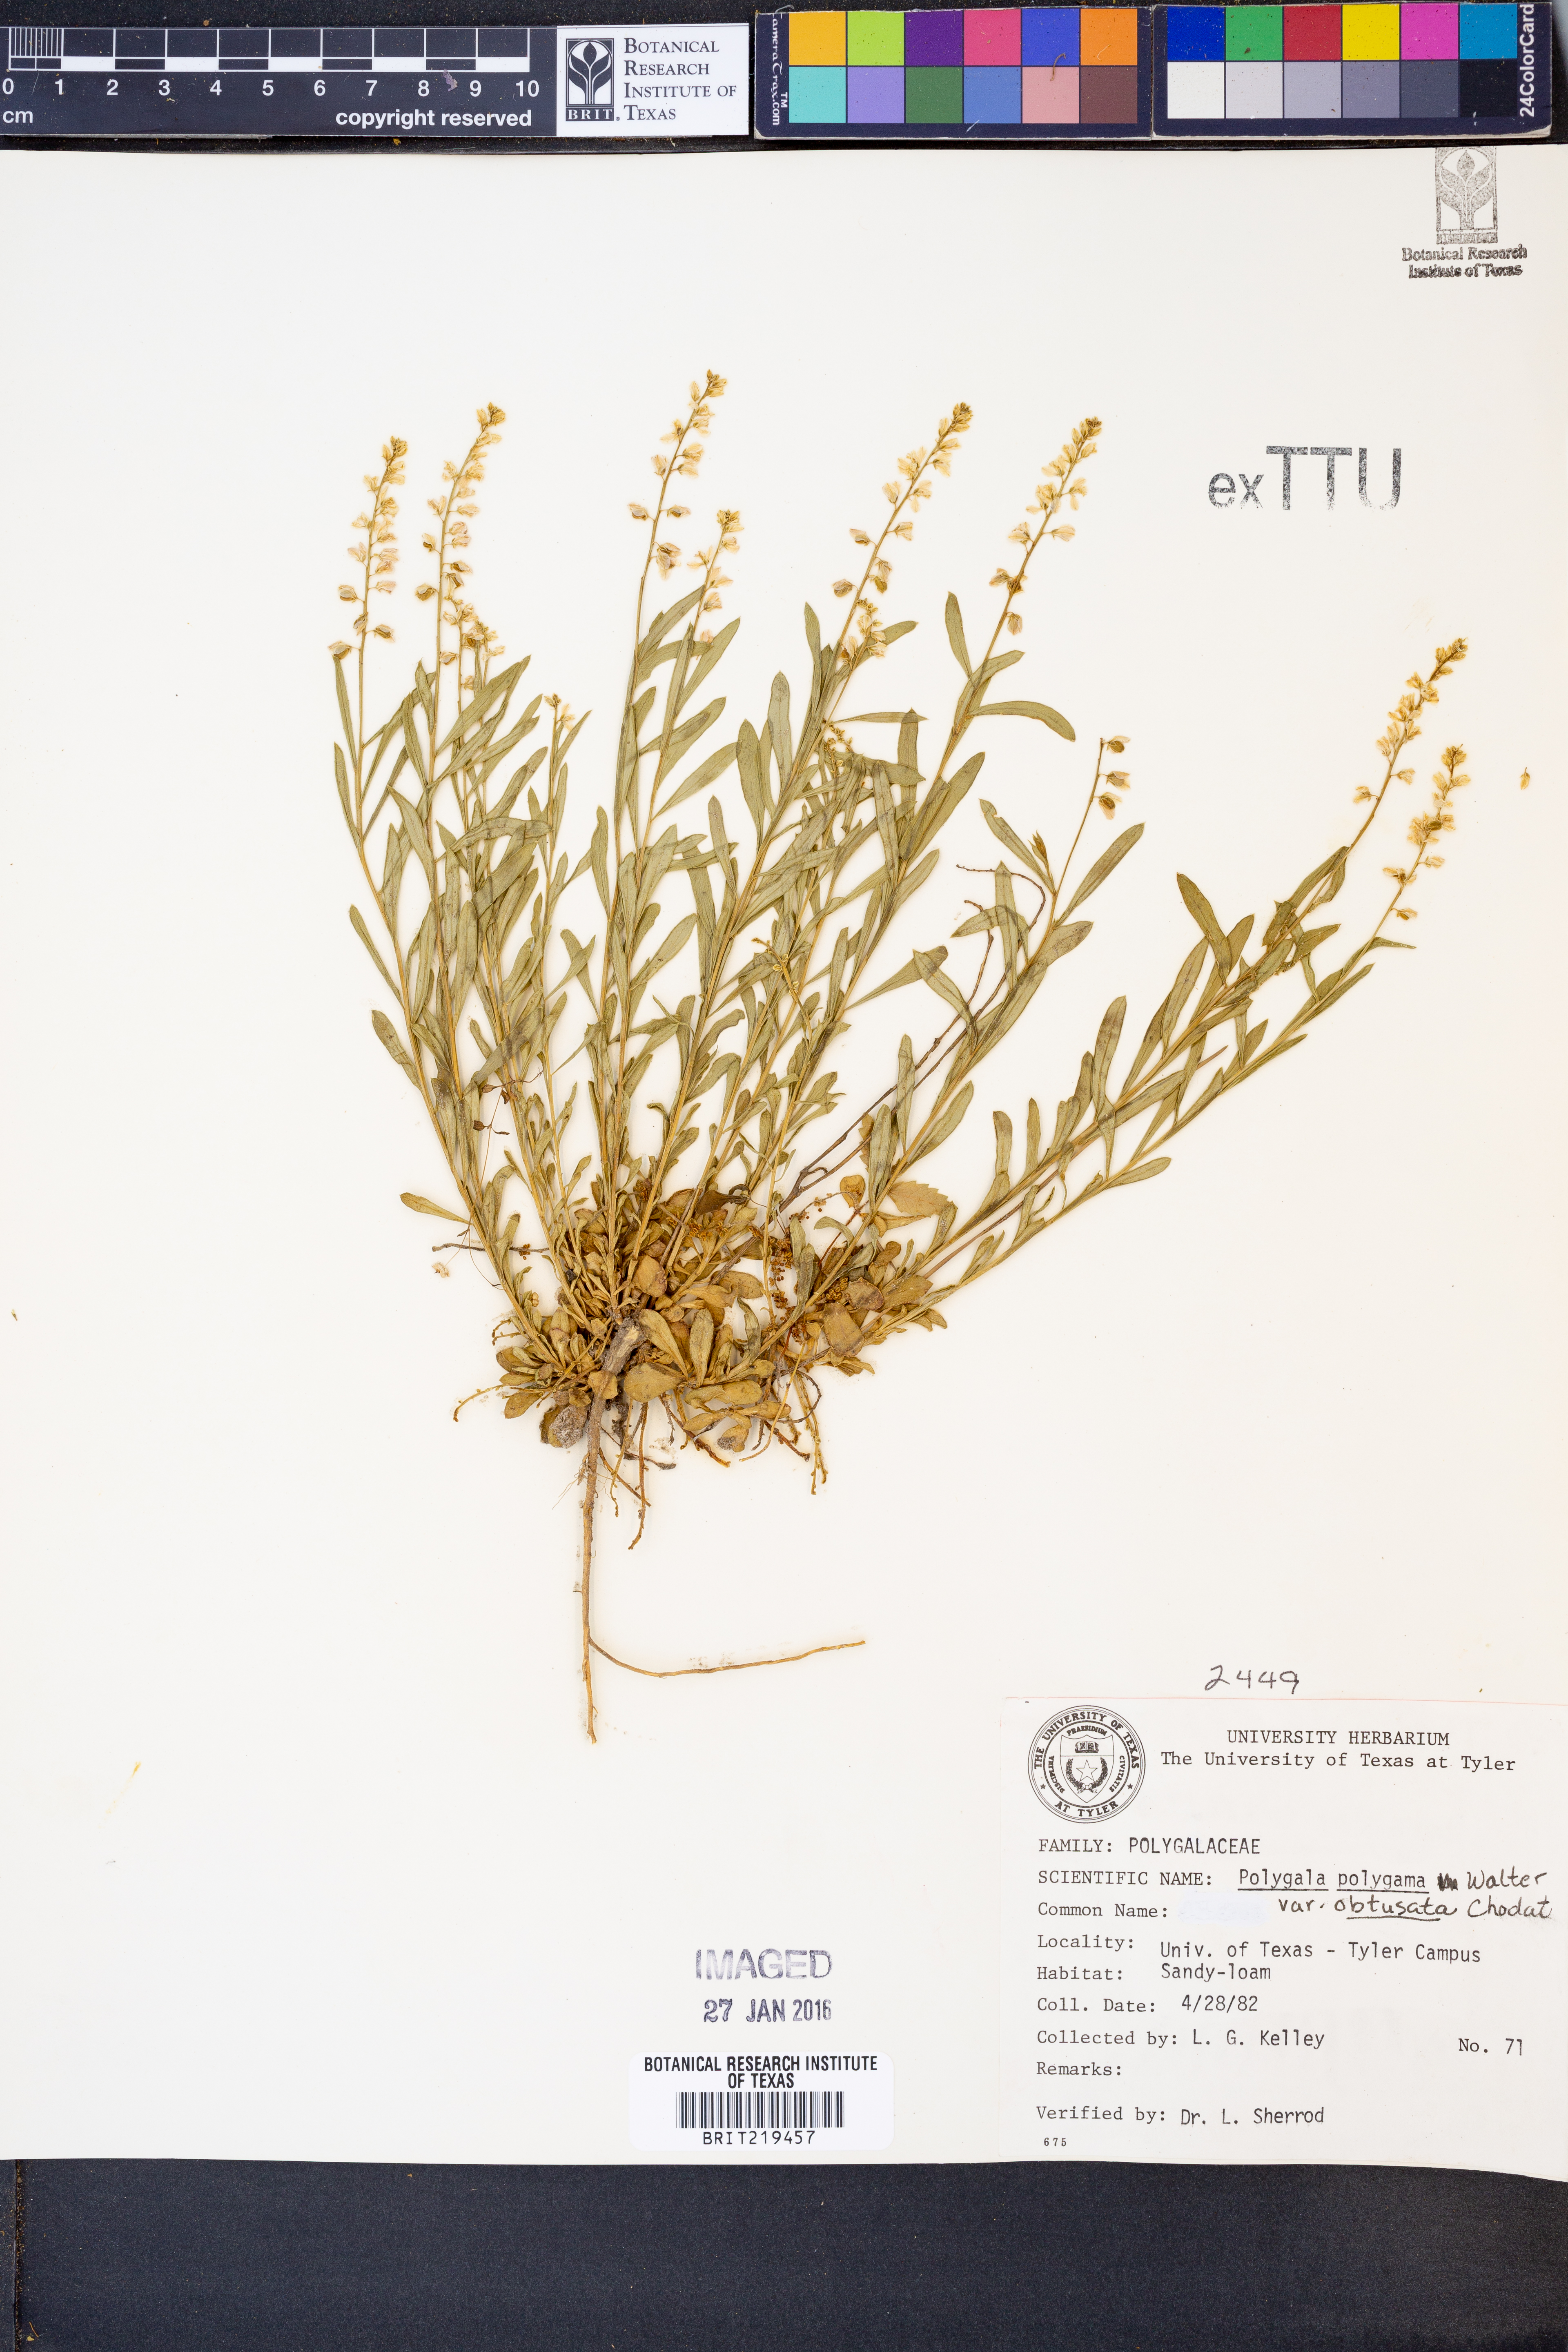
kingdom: Plantae
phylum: Tracheophyta
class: Magnoliopsida
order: Fabales
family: Polygalaceae
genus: Polygala
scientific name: Polygala polygama
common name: Bitter milkwort
